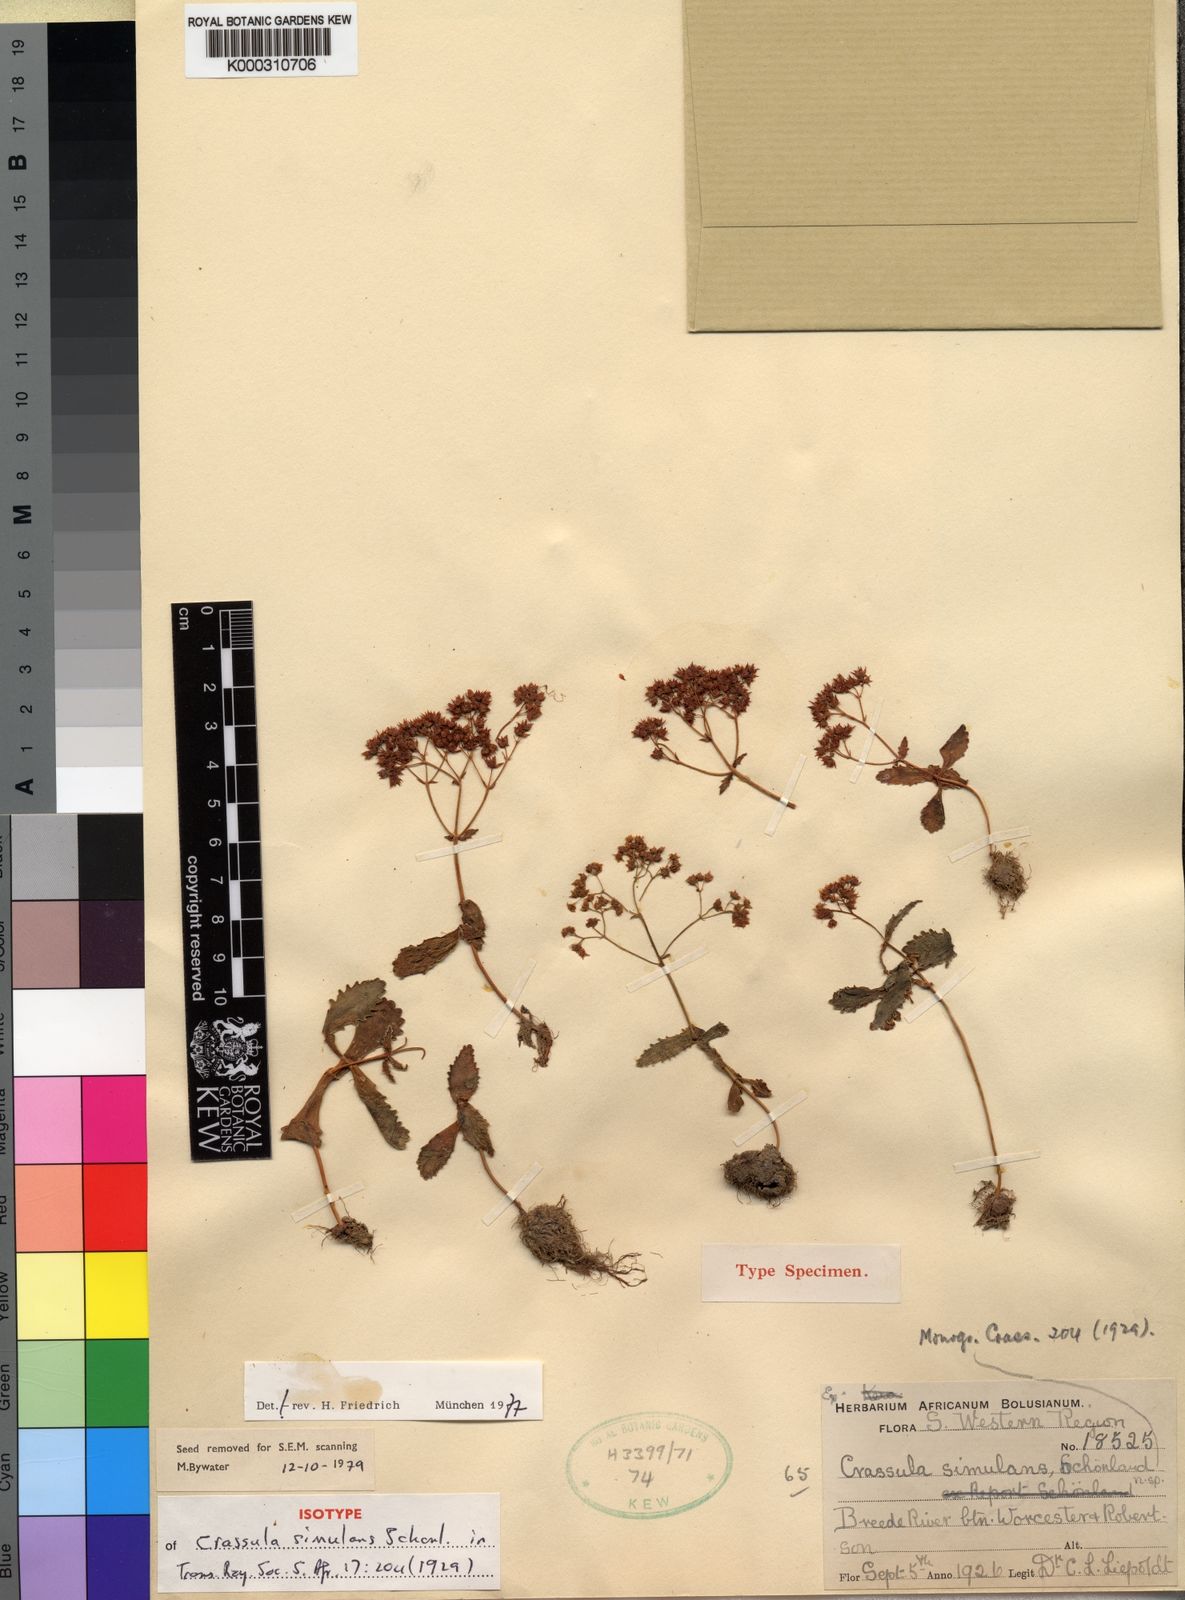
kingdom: Plantae
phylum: Tracheophyta
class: Magnoliopsida
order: Saxifragales
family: Crassulaceae
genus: Crassula
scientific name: Crassula
